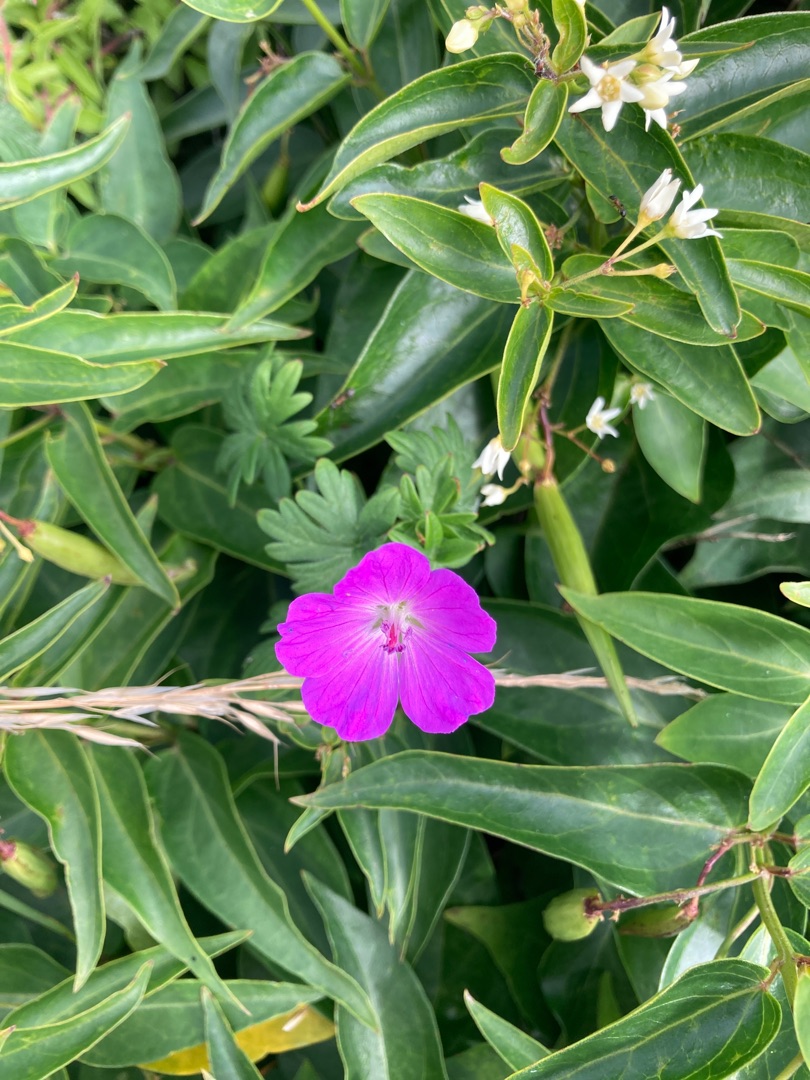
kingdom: Plantae
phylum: Tracheophyta
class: Magnoliopsida
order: Geraniales
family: Geraniaceae
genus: Geranium
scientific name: Geranium sanguineum
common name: Blodrød storkenæb
